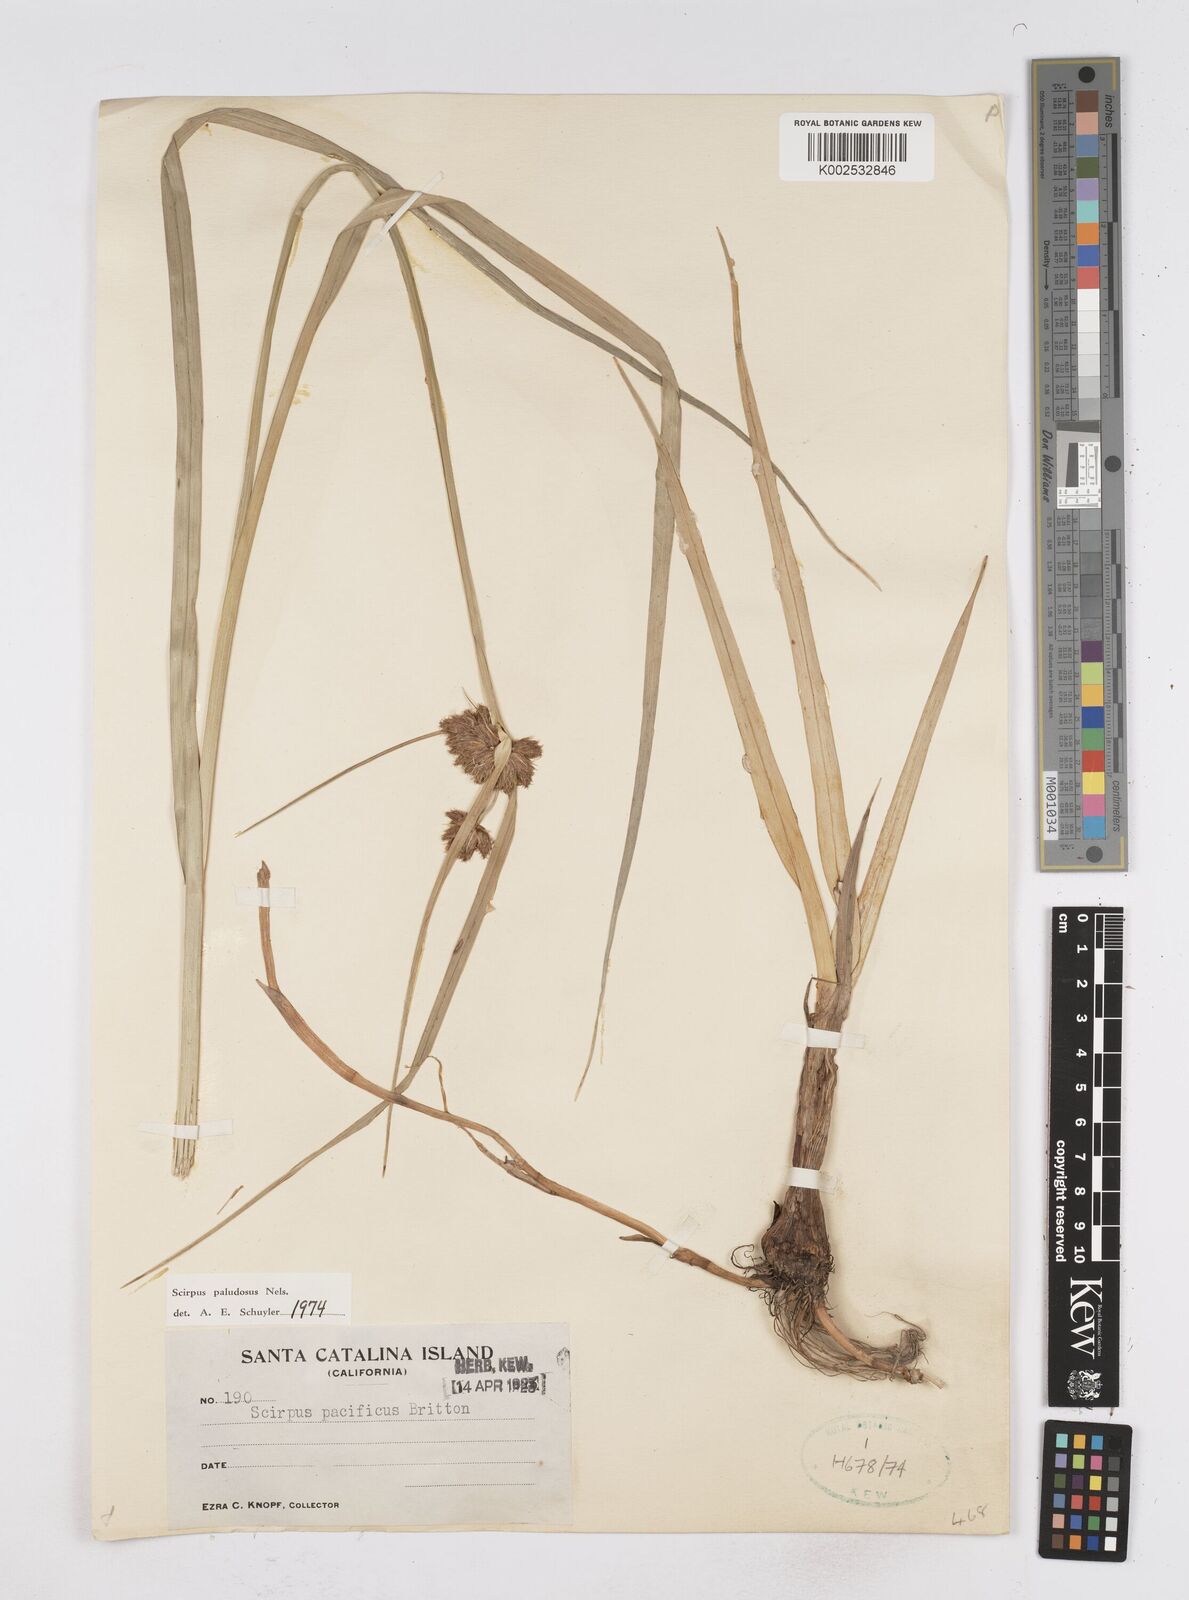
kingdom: Plantae
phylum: Tracheophyta
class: Liliopsida
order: Poales
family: Cyperaceae
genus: Bolboschoenus
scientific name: Bolboschoenus maritimus
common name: Sea club-rush
